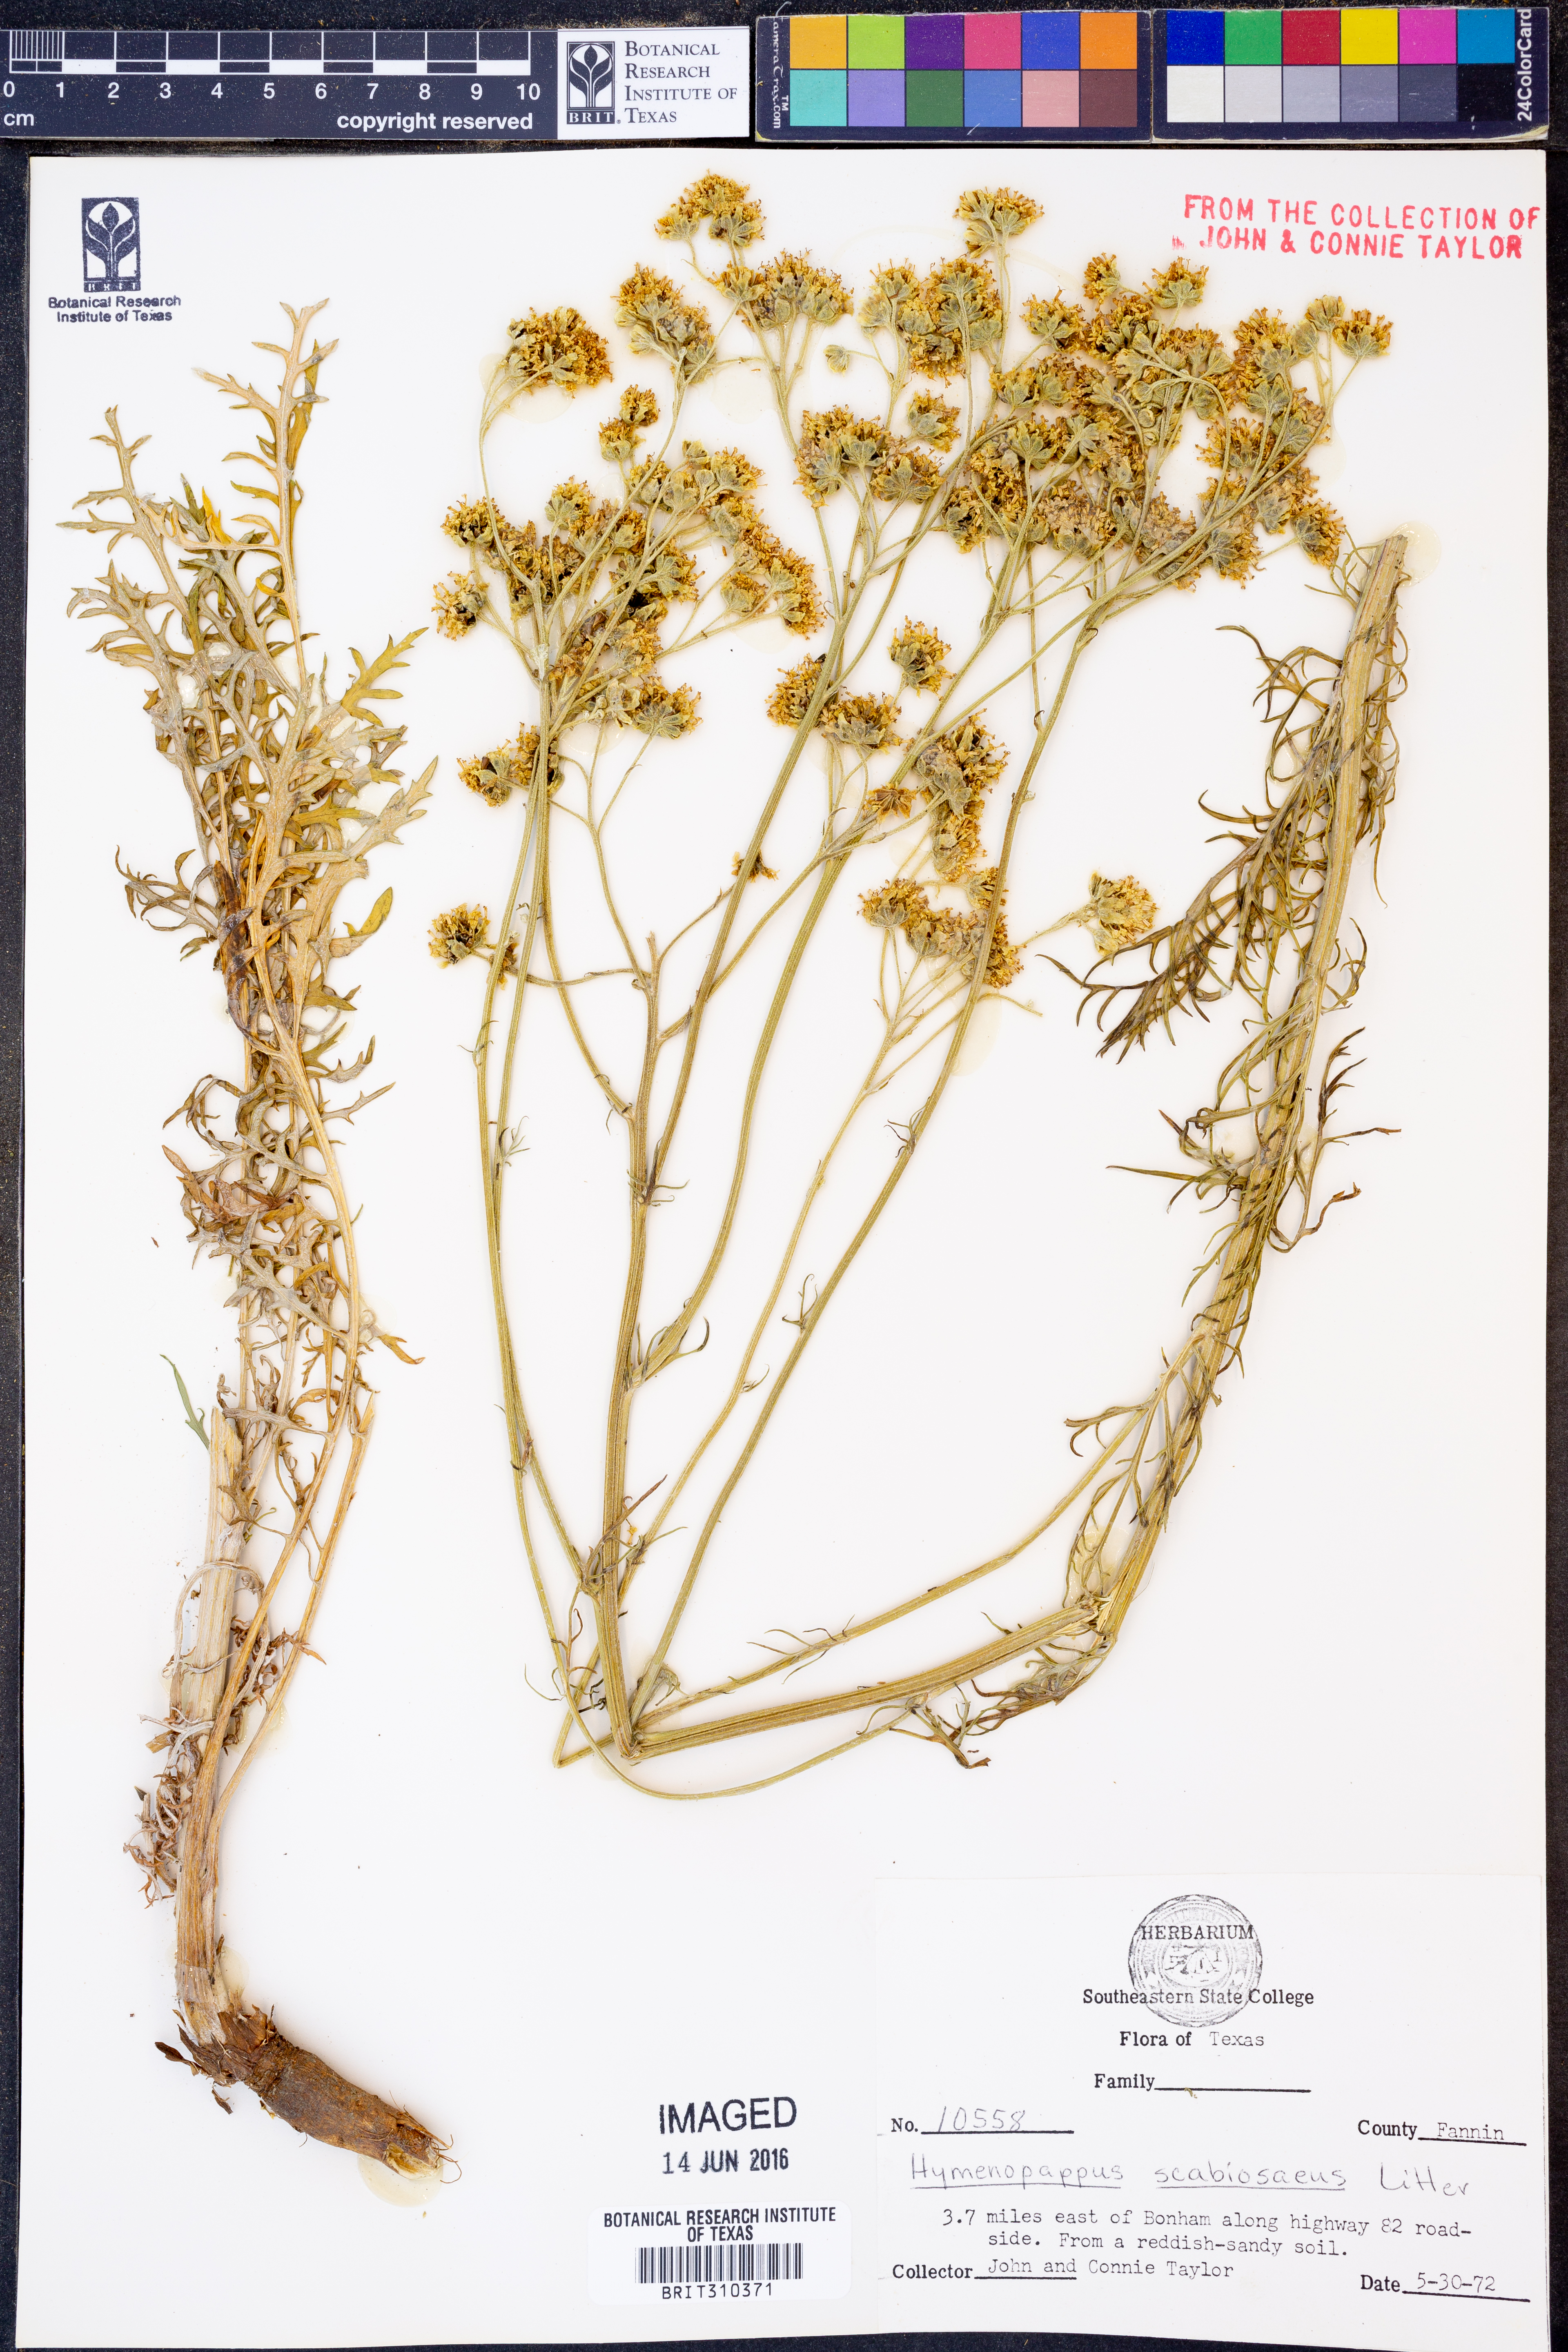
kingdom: Plantae
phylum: Tracheophyta
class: Magnoliopsida
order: Asterales
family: Asteraceae
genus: Hymenopappus
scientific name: Hymenopappus scabiosaeus
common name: Carolina woollywhite
